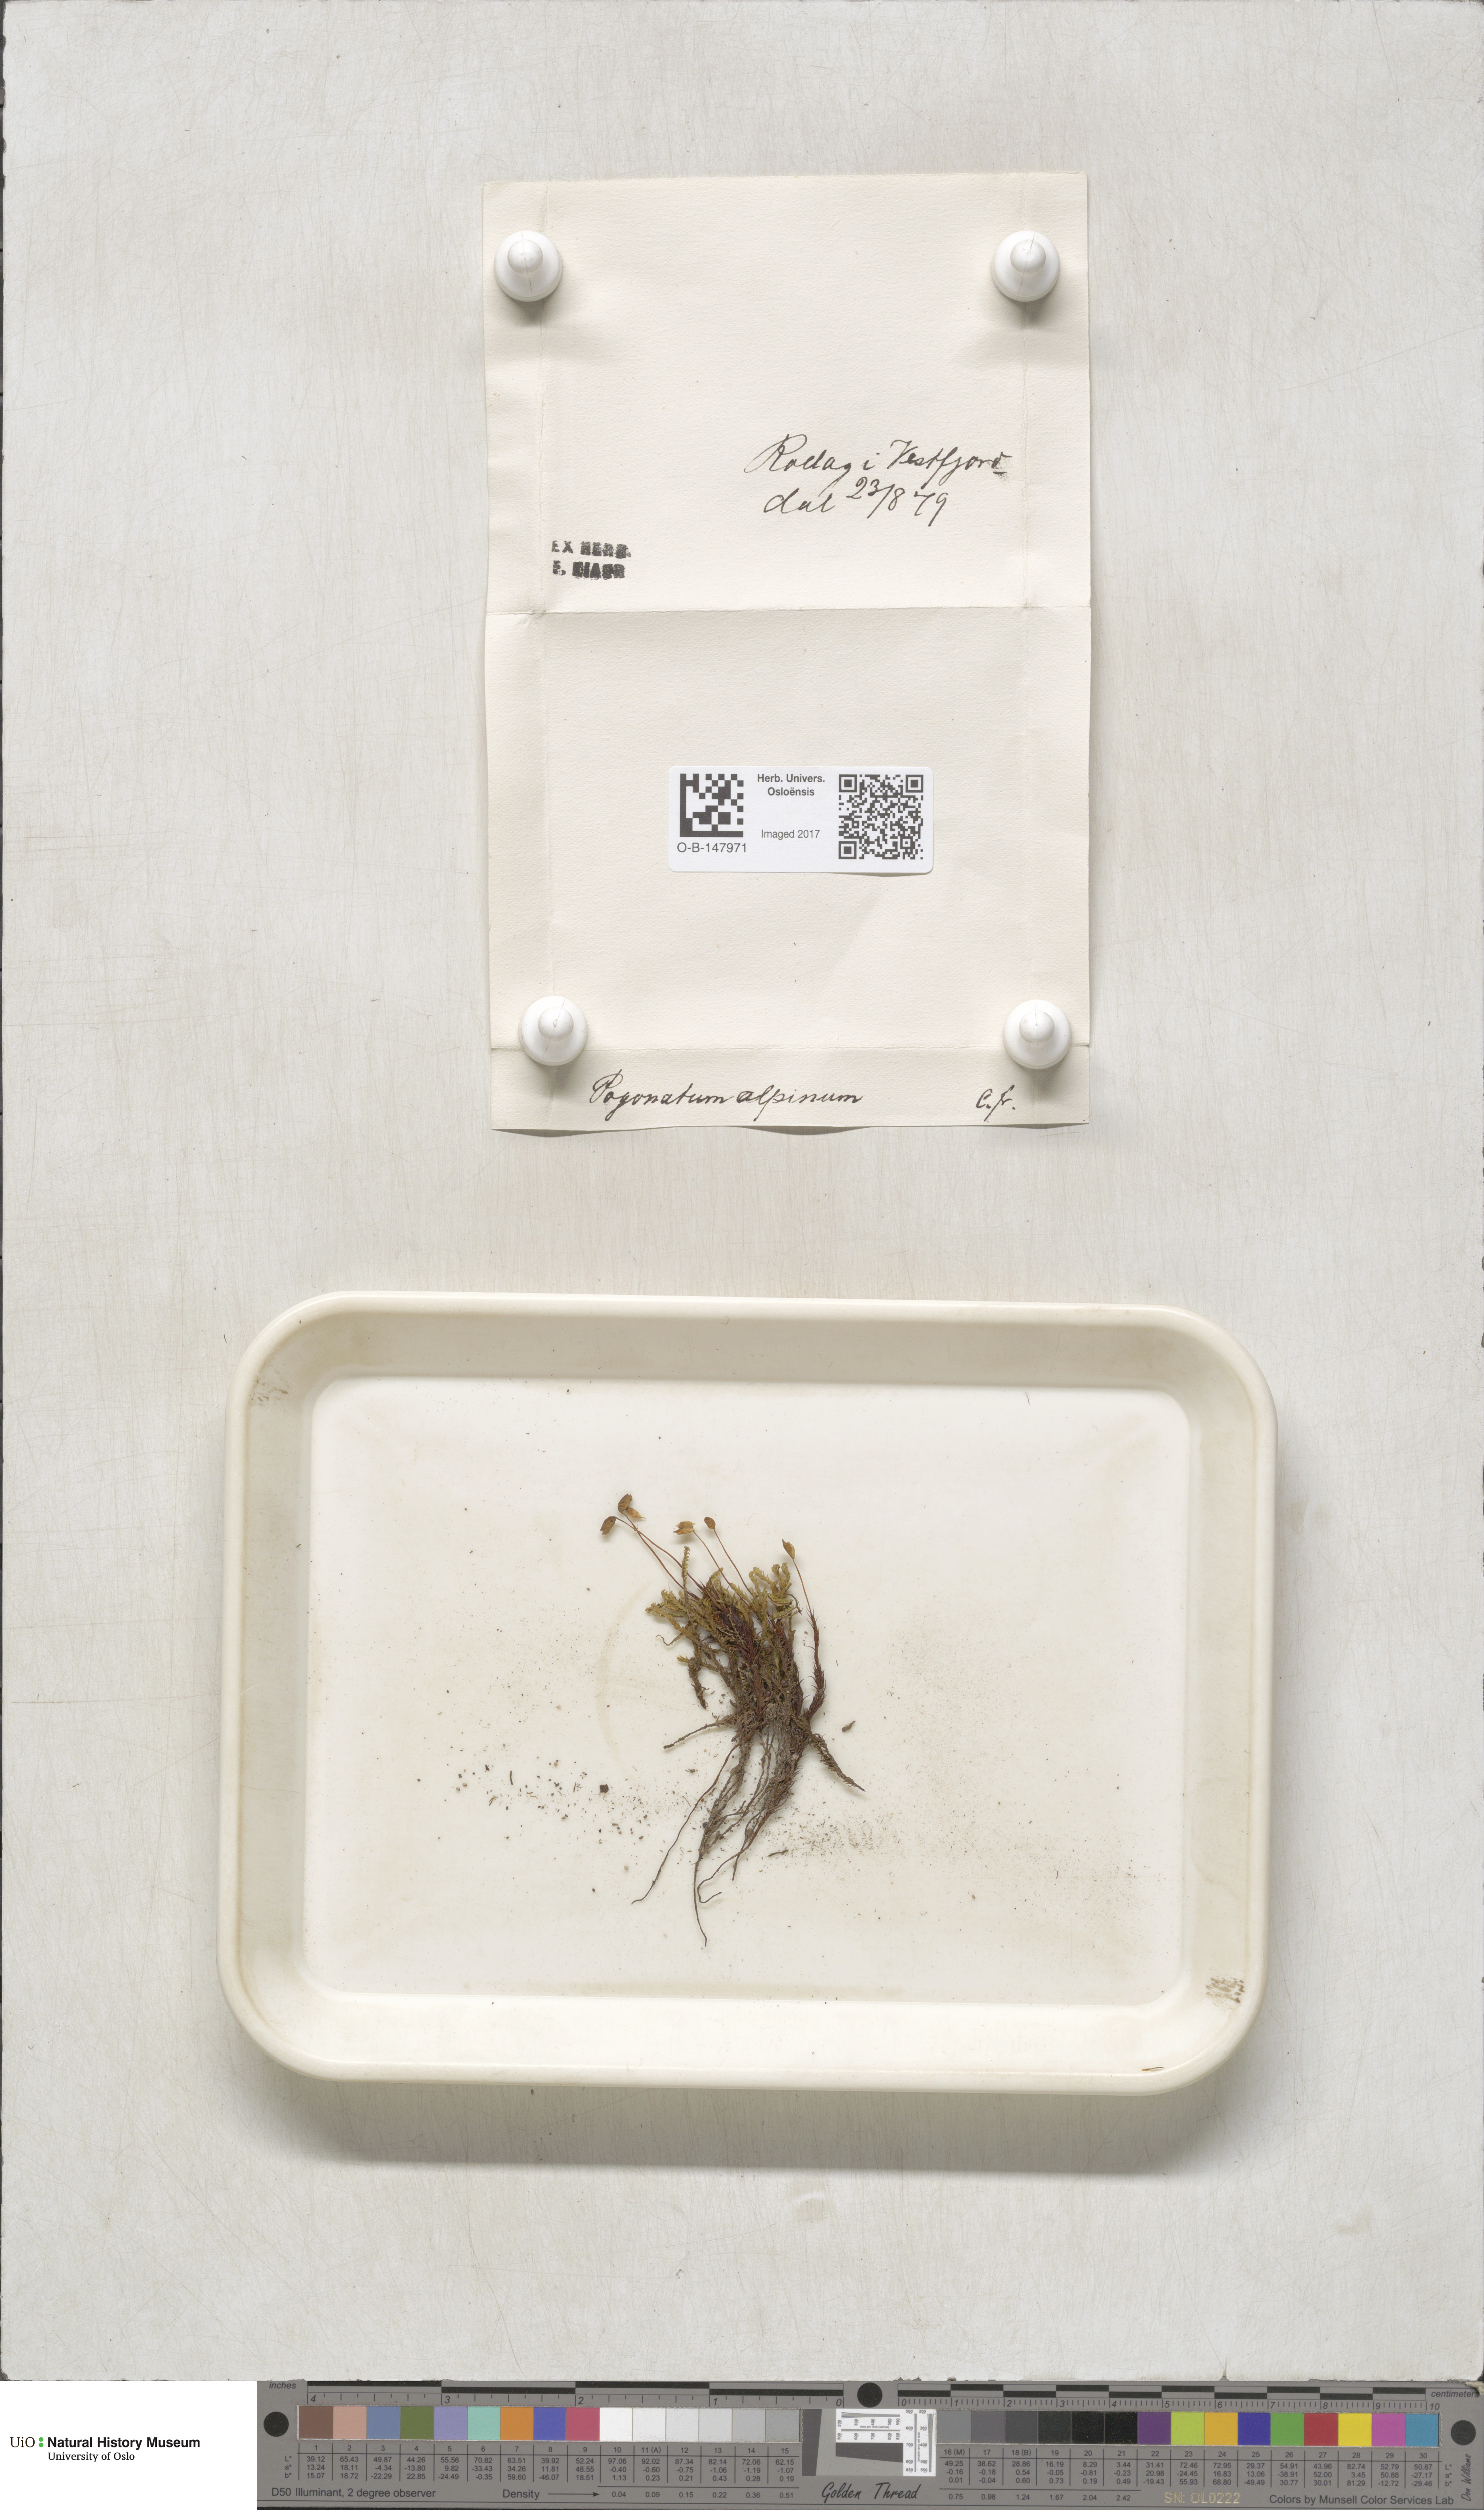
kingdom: Plantae
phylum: Bryophyta
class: Polytrichopsida
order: Polytrichales
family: Polytrichaceae
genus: Polytrichastrum
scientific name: Polytrichastrum alpinum
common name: Alpine haircap
